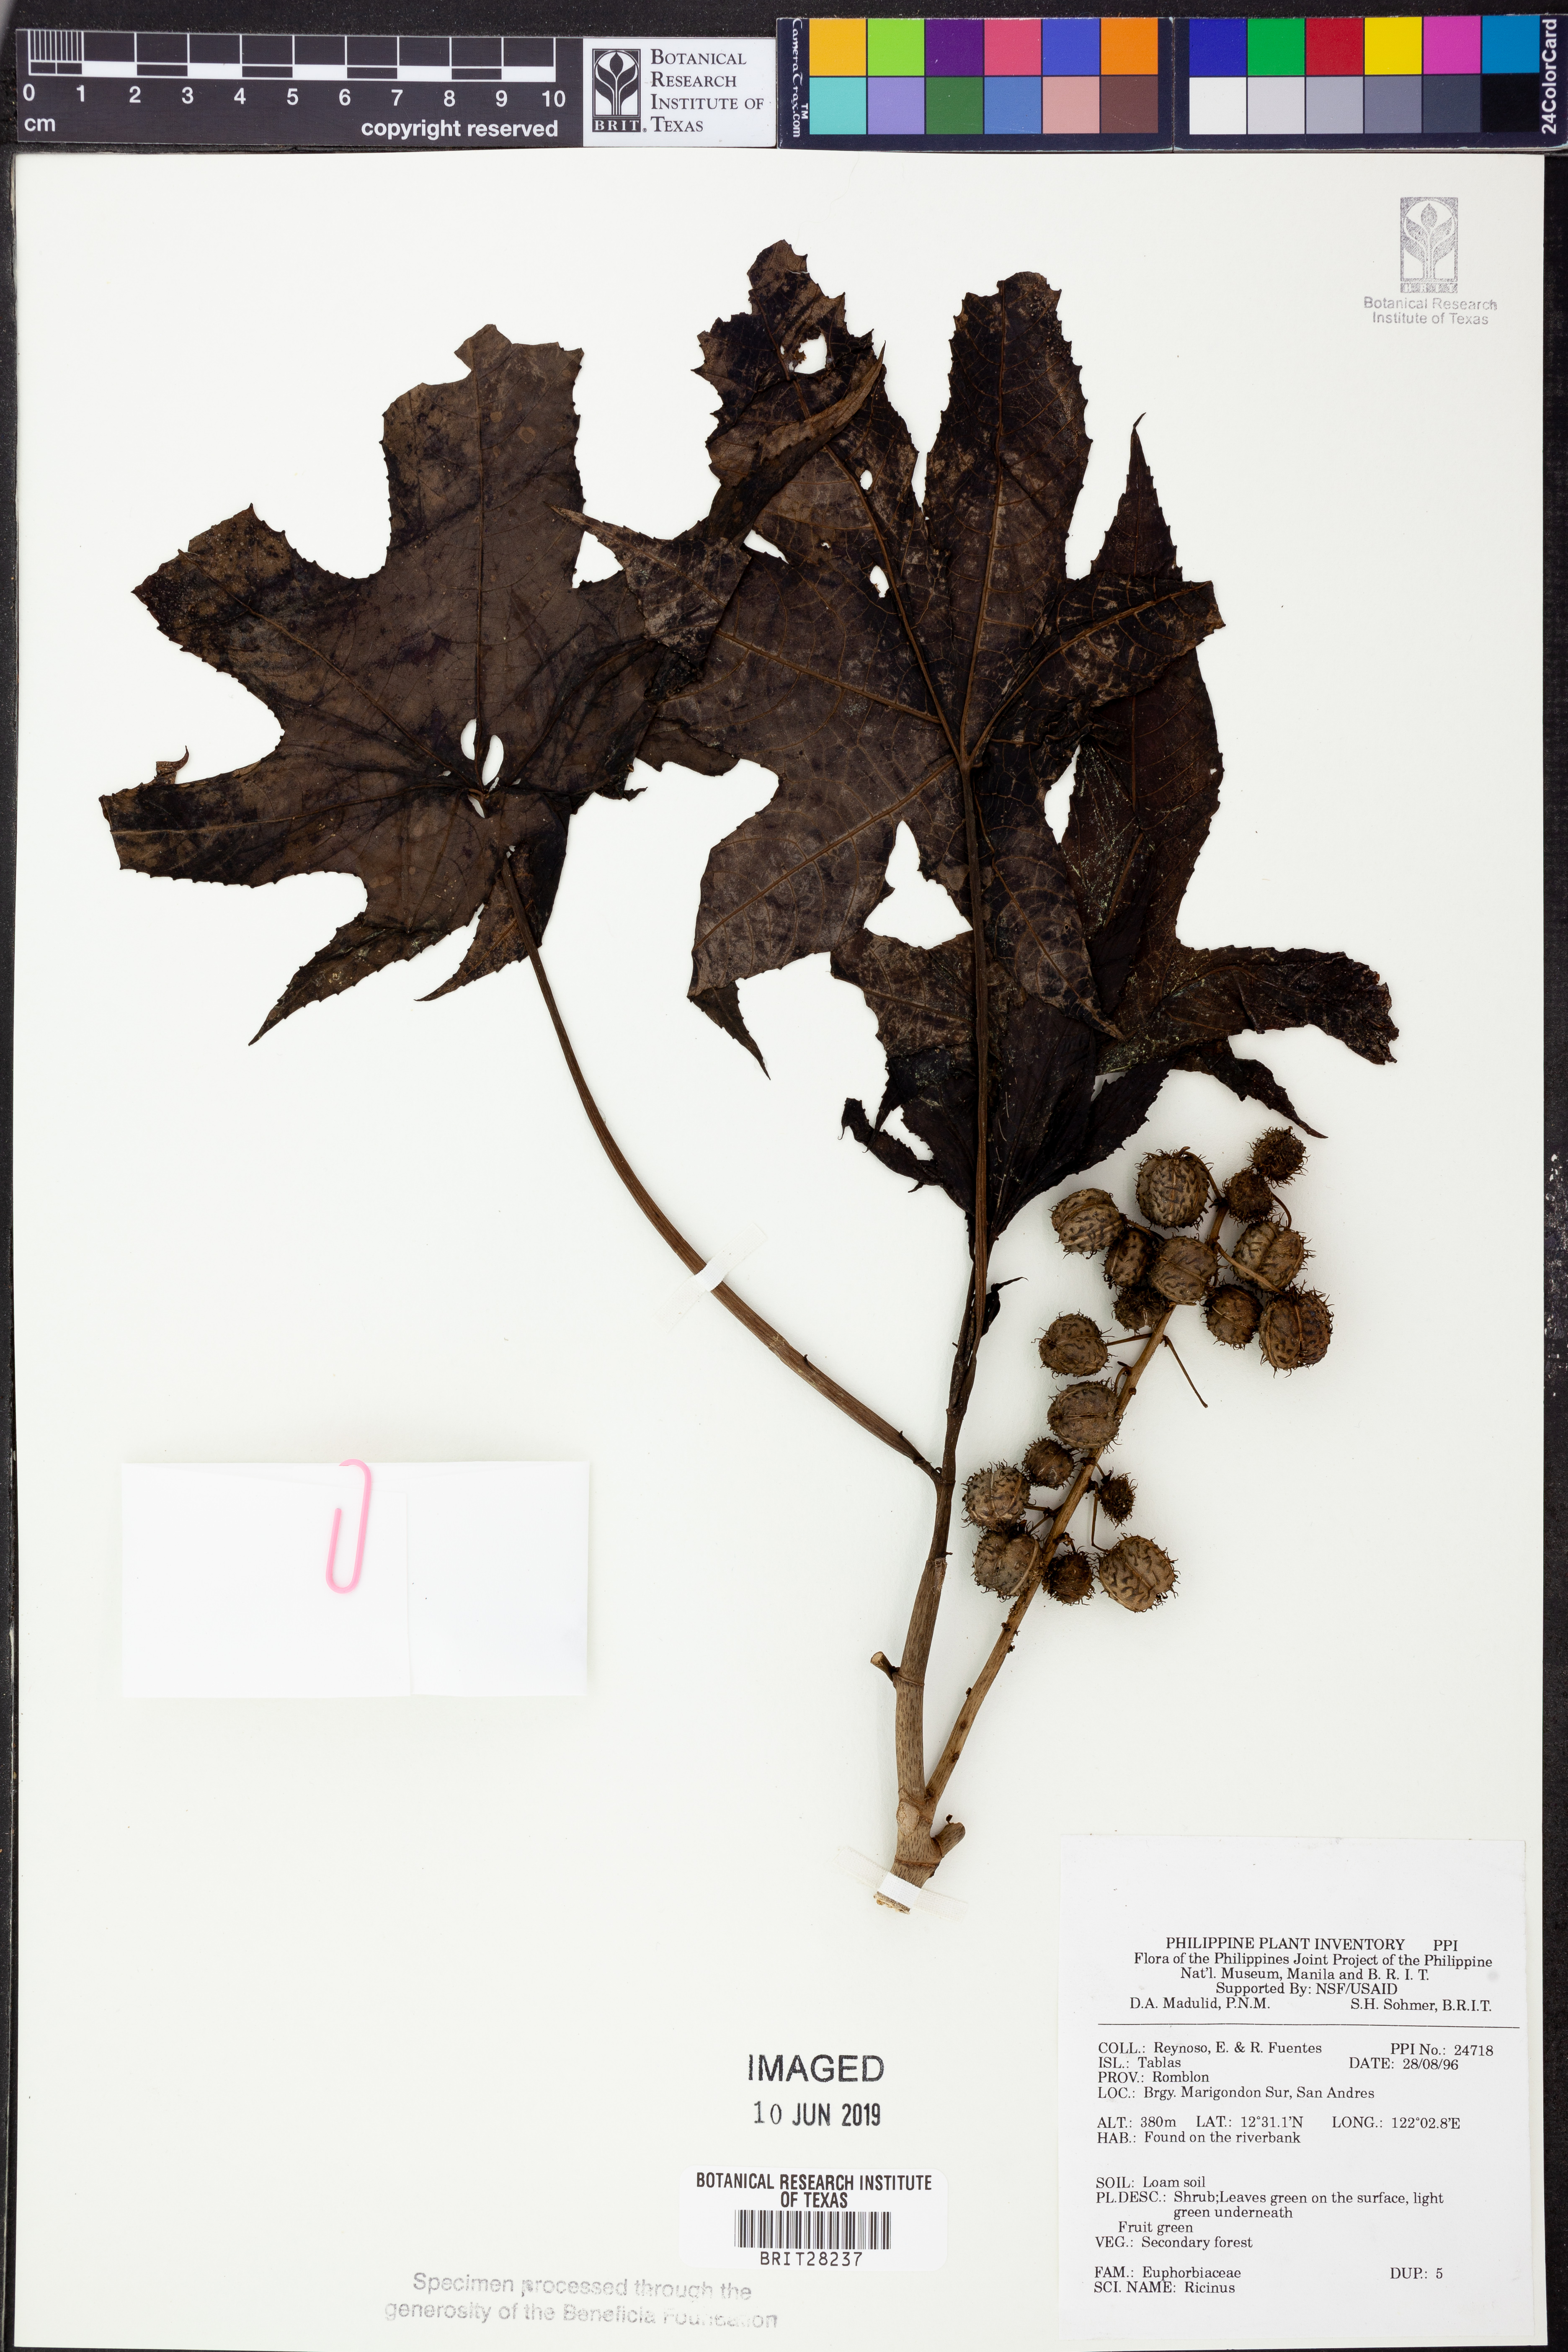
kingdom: Plantae
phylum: Tracheophyta
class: Magnoliopsida
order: Malpighiales
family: Euphorbiaceae
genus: Ricinus
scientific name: Ricinus
